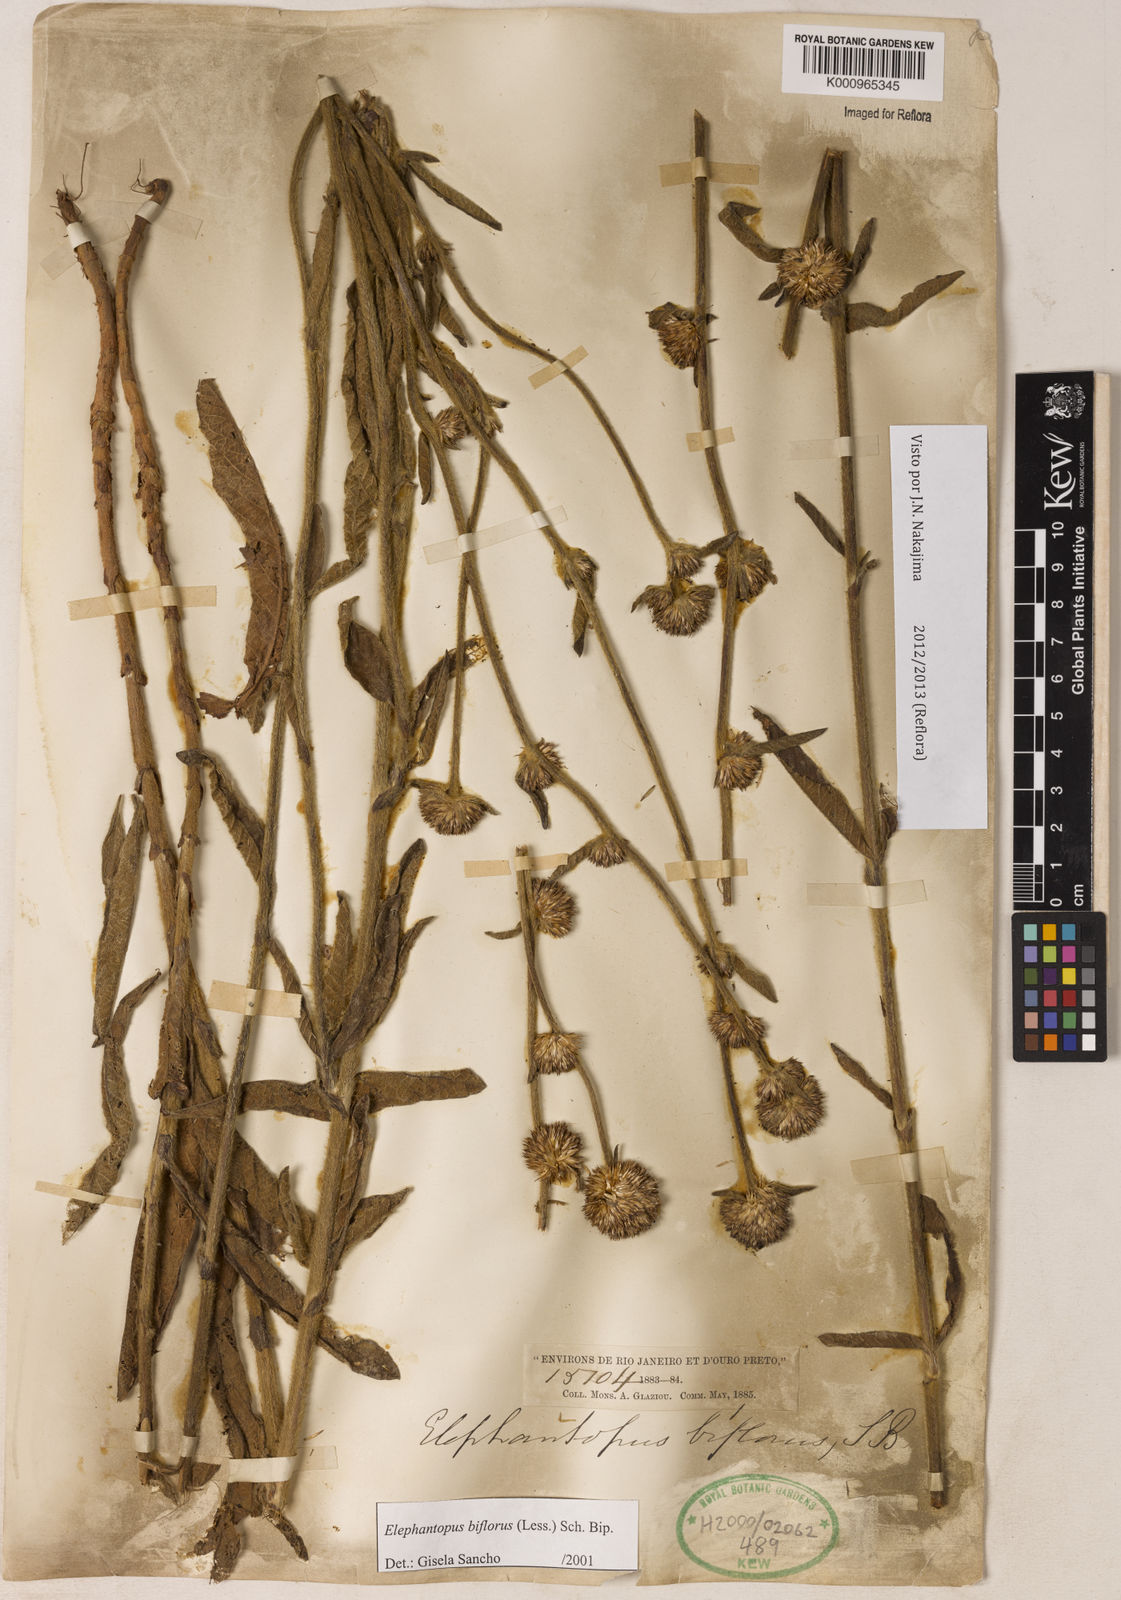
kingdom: Plantae
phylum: Tracheophyta
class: Magnoliopsida
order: Asterales
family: Asteraceae
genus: Elephantopus
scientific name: Elephantopus biflorus
